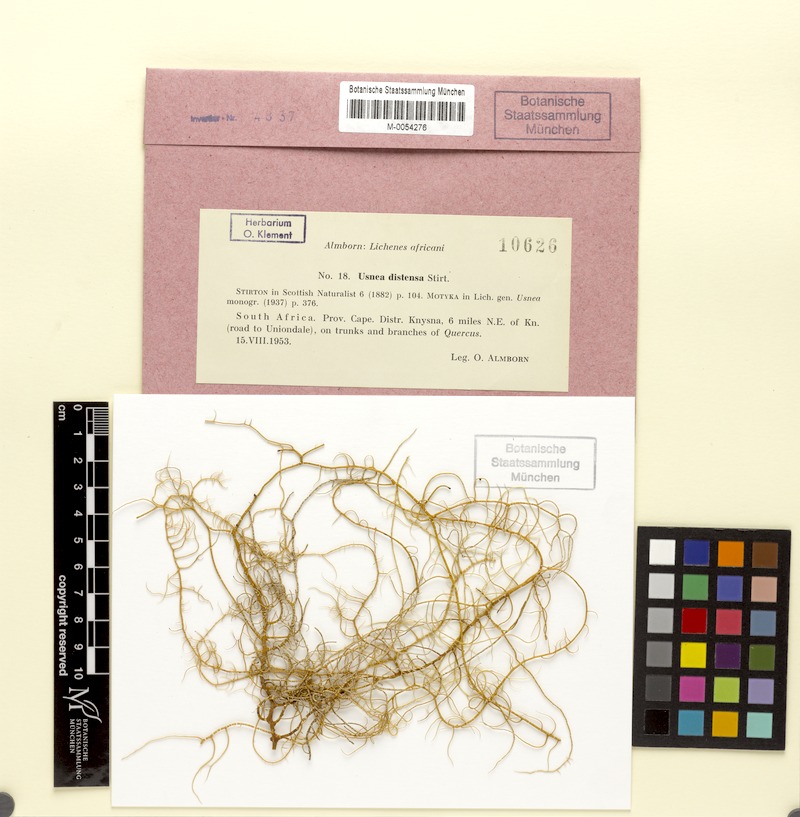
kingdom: Fungi
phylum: Ascomycota
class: Lecanoromycetes
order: Lecanorales
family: Parmeliaceae
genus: Usnea
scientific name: Usnea distensa
